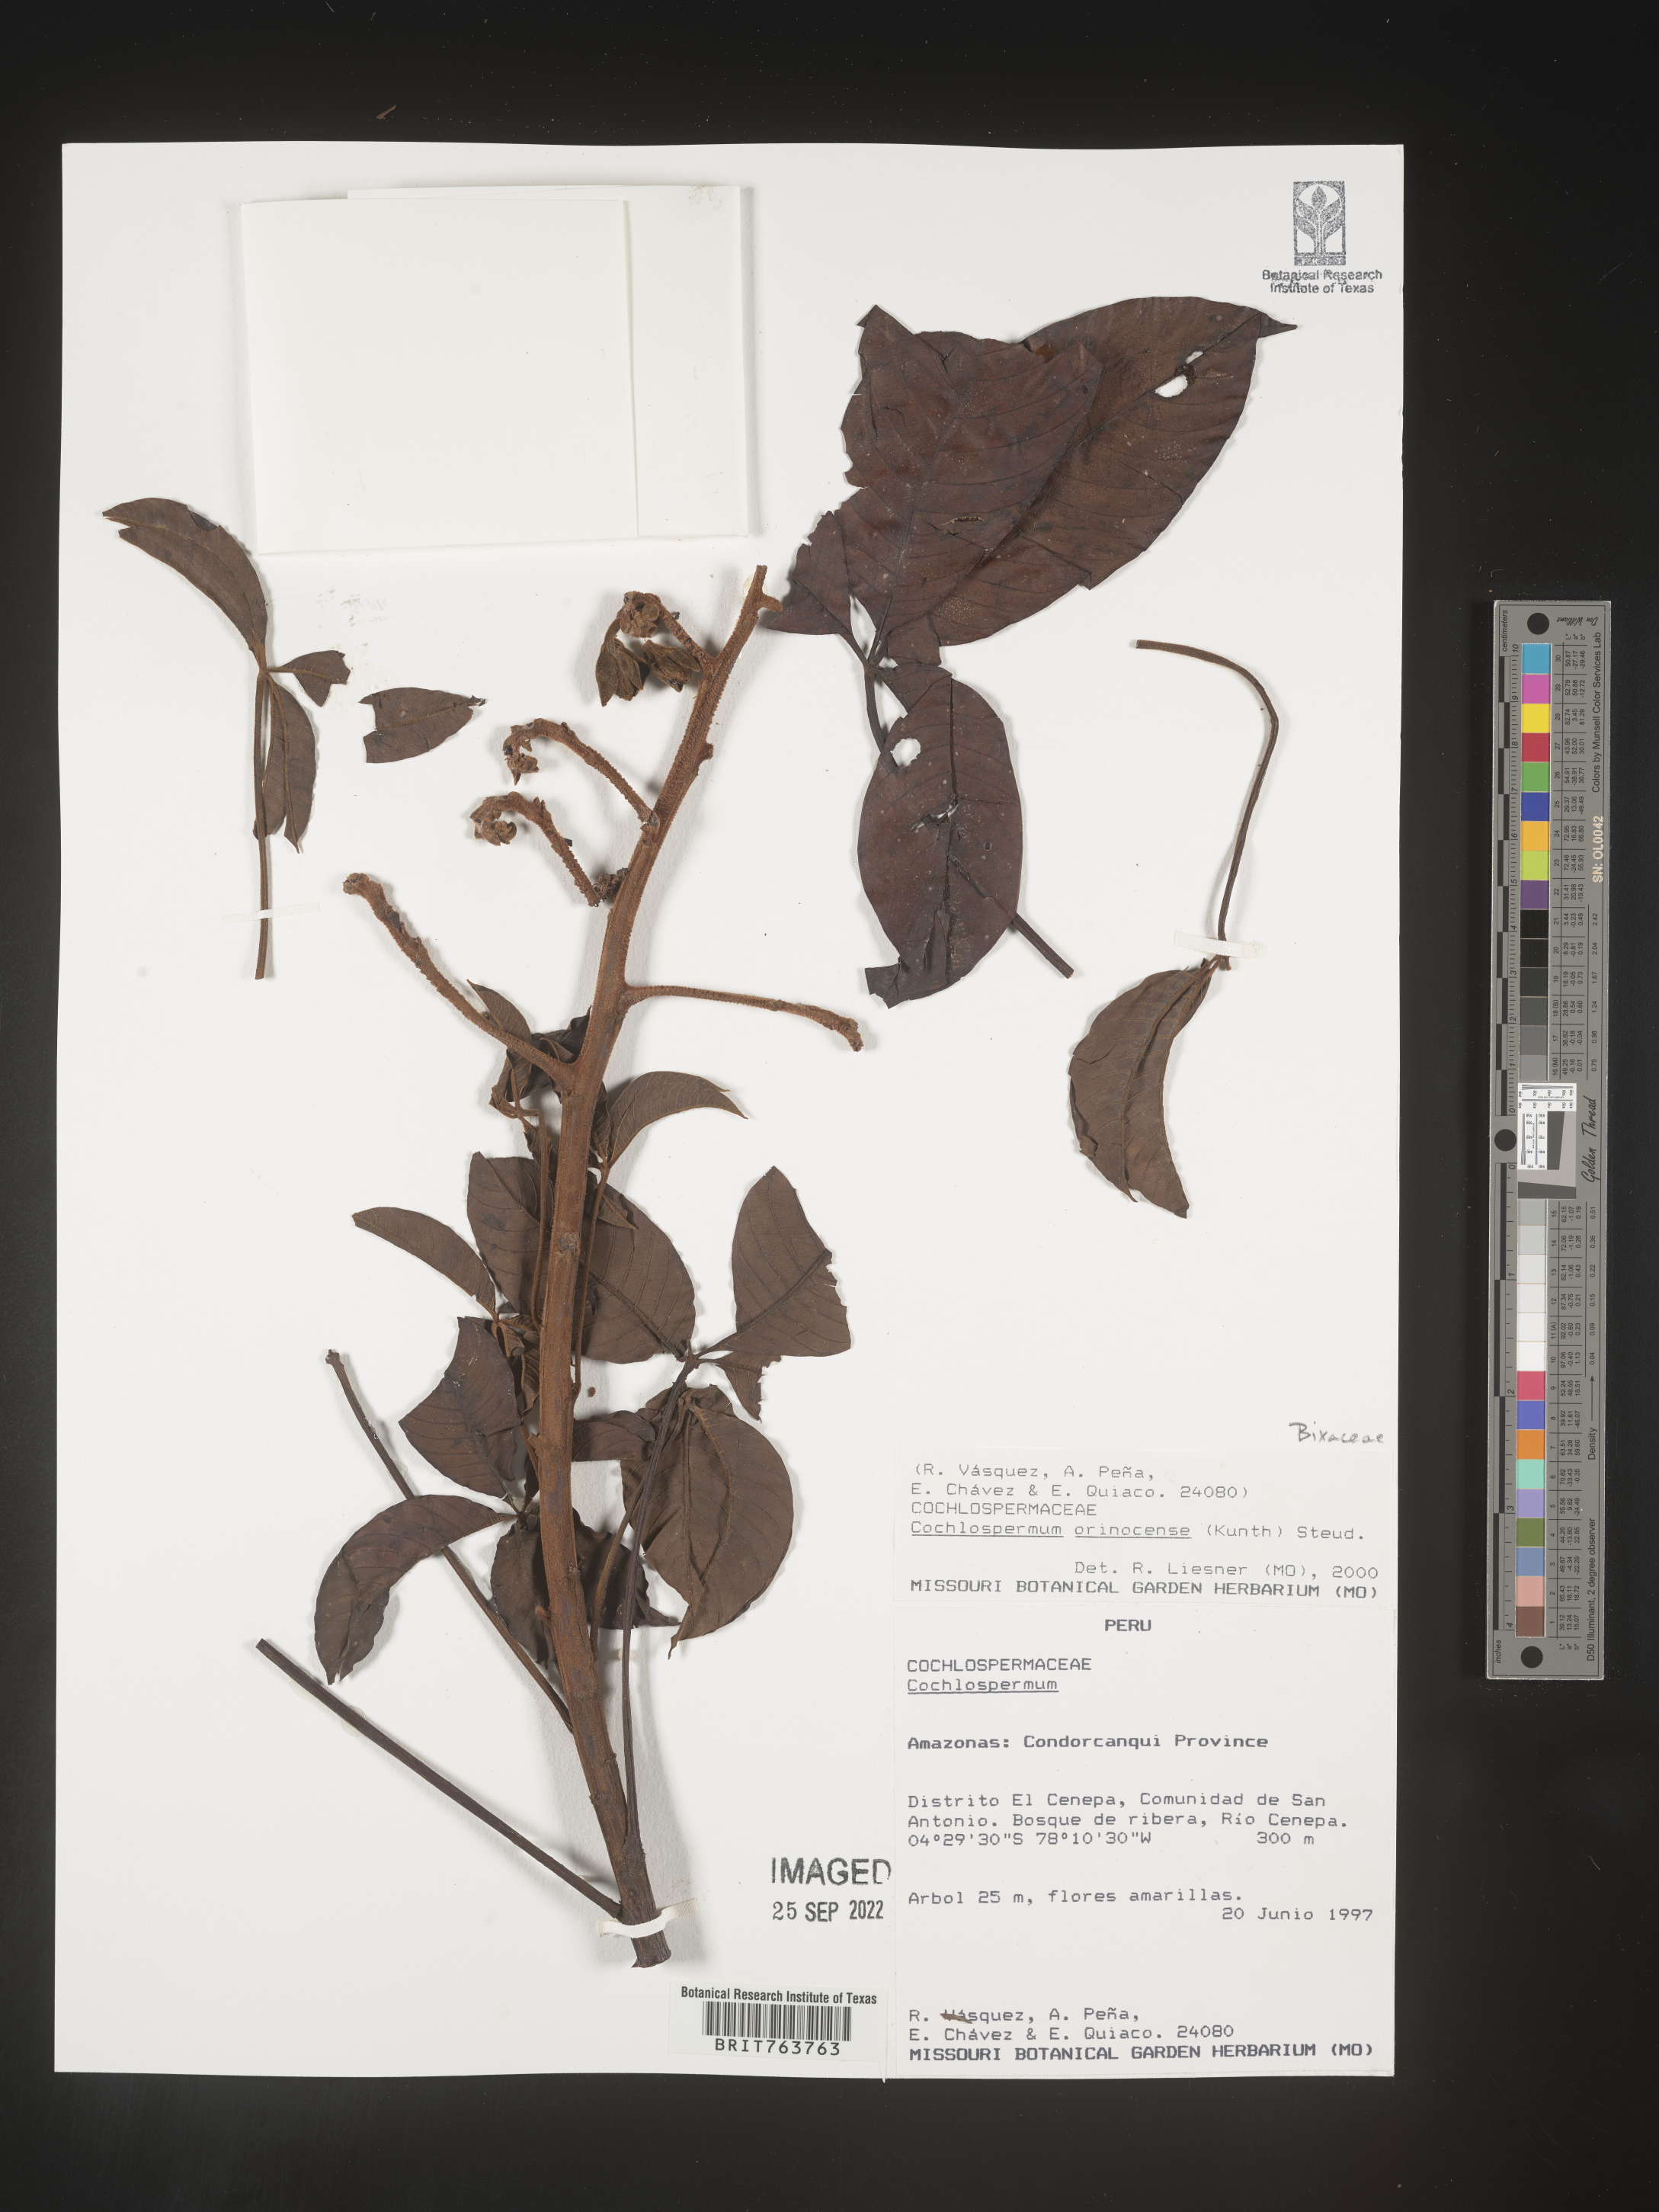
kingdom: Plantae
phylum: Tracheophyta
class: Magnoliopsida
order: Malvales
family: Cochlospermaceae
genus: Cochlospermum
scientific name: Cochlospermum
